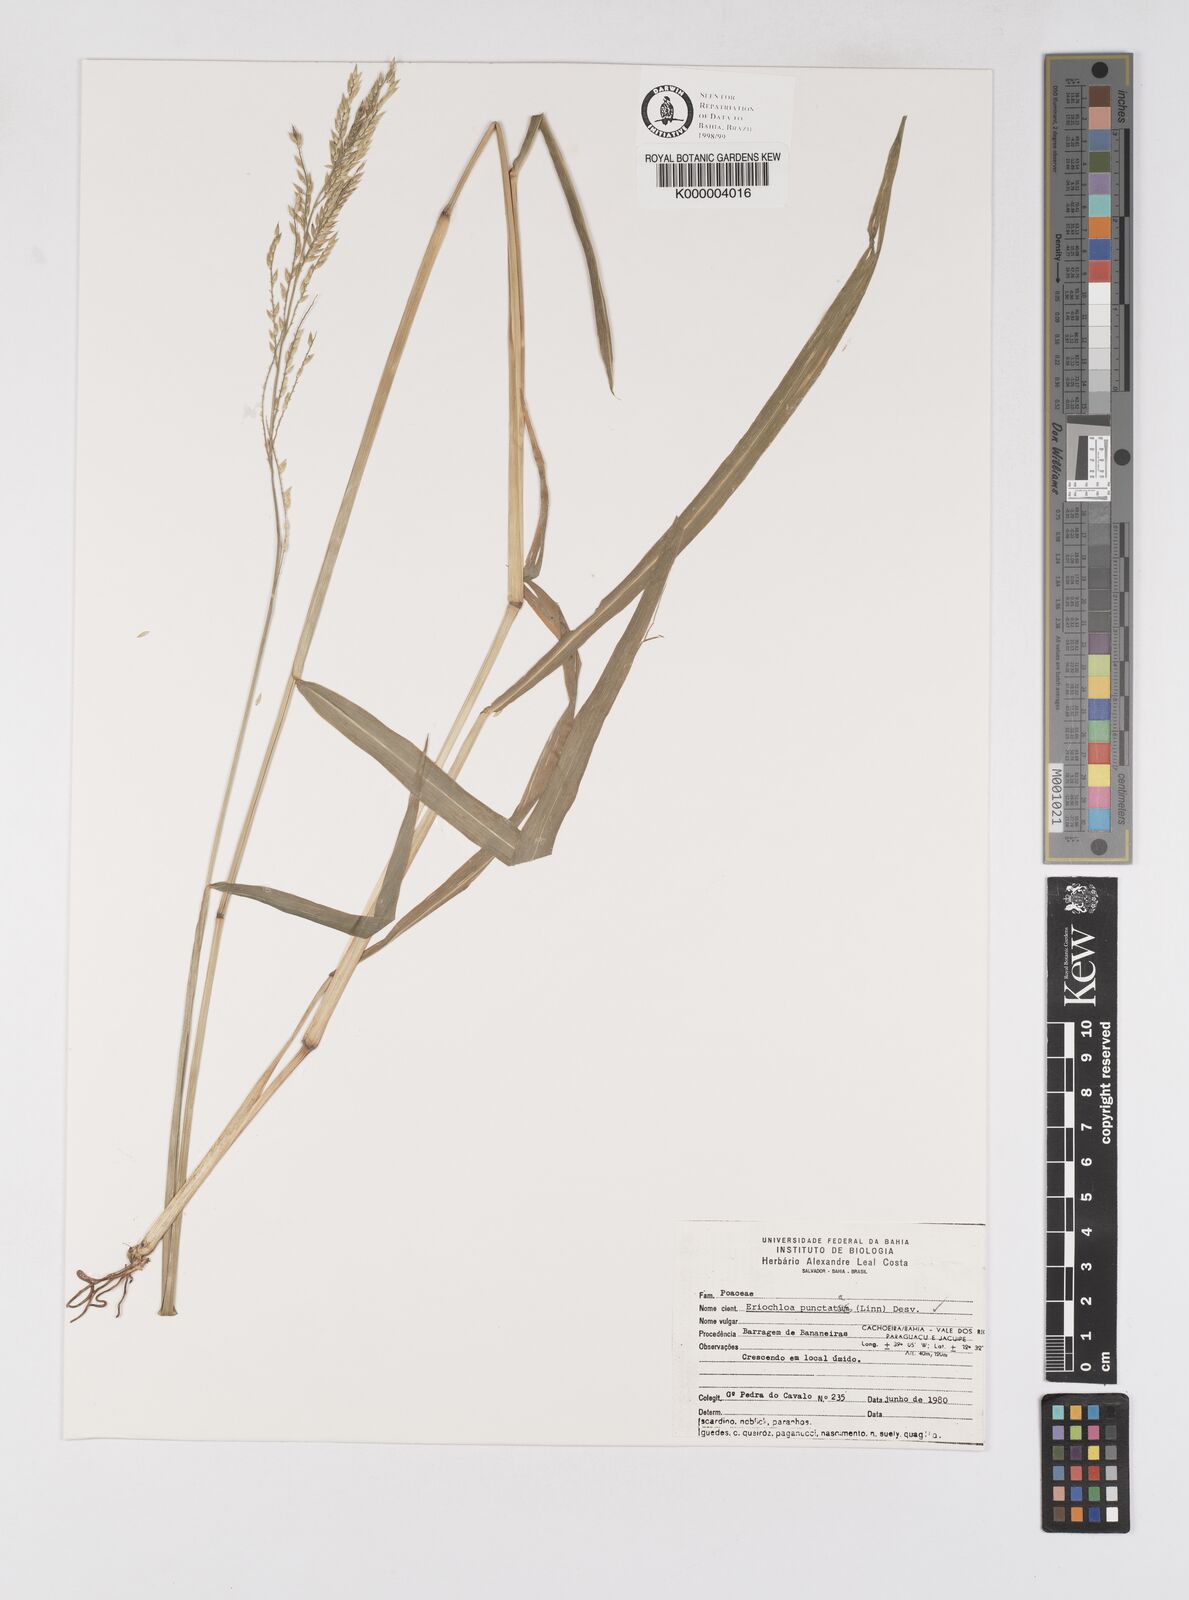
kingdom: Plantae
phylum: Tracheophyta
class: Liliopsida
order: Poales
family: Poaceae
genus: Eriochloa
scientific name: Eriochloa
